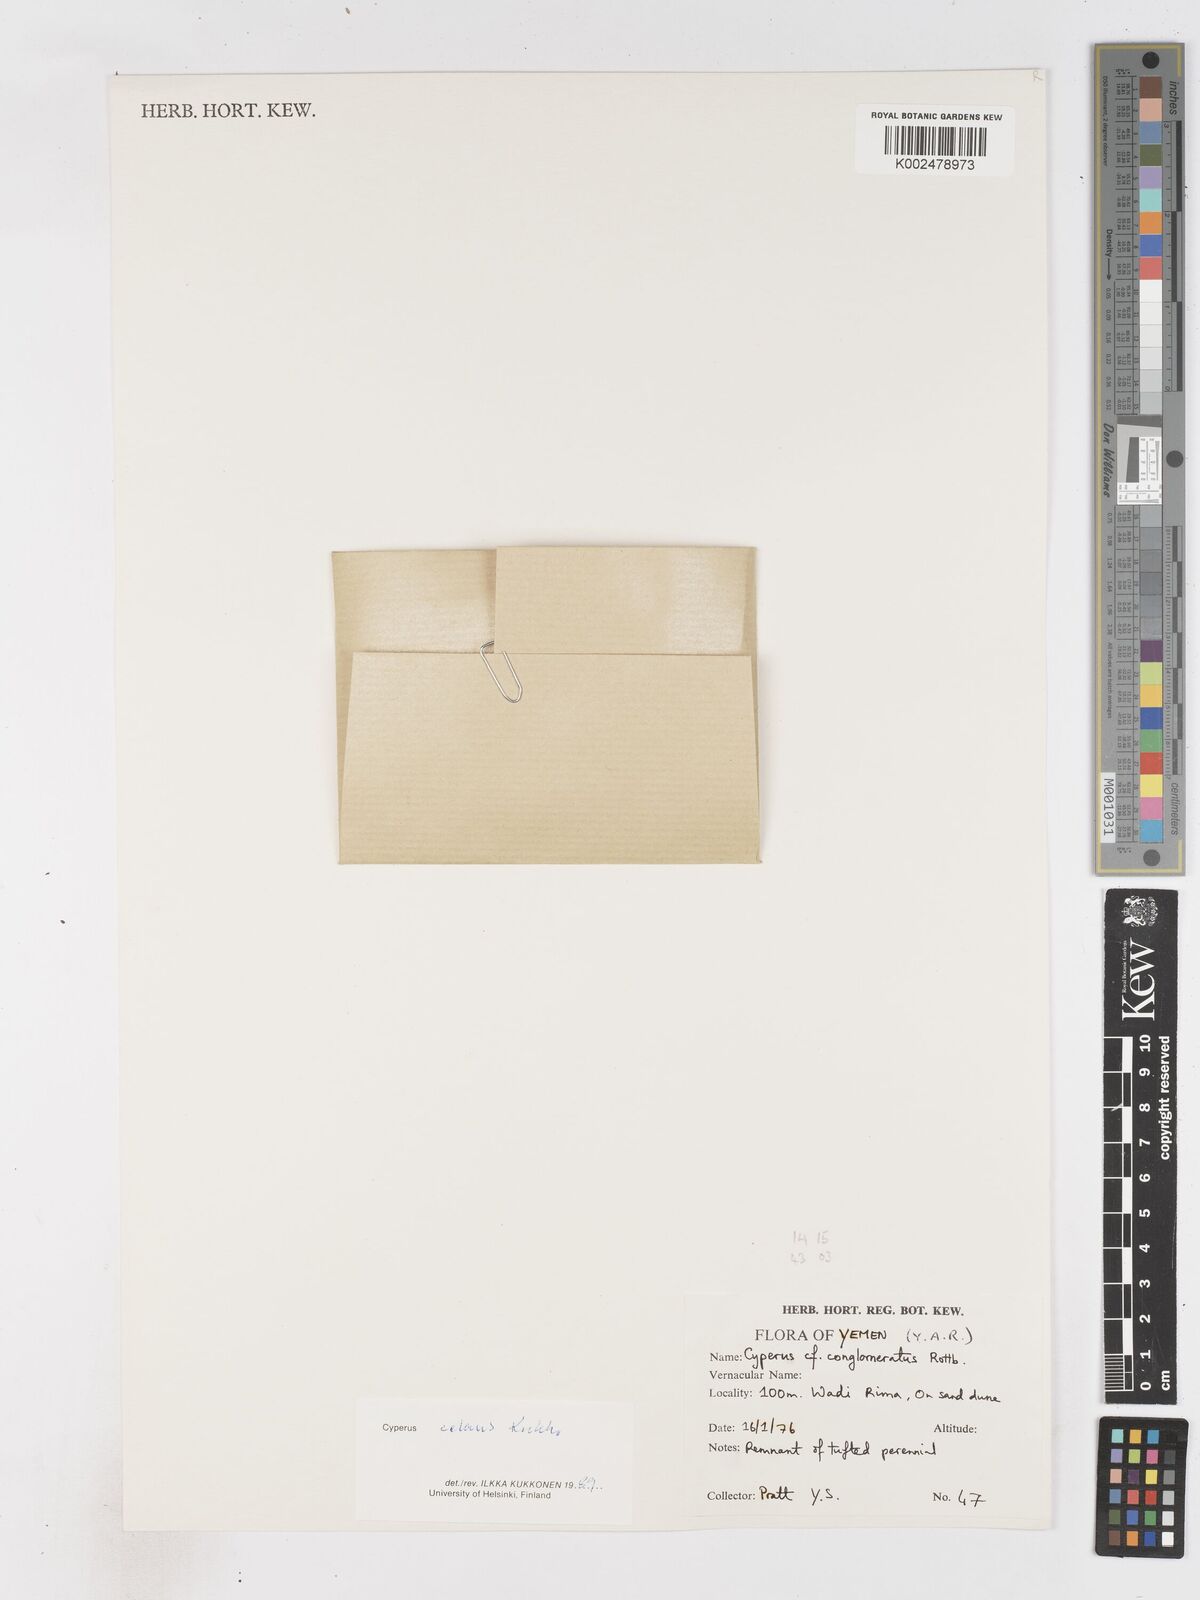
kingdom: Plantae
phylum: Tracheophyta
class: Liliopsida
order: Poales
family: Cyperaceae
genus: Cyperus
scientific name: Cyperus celans
